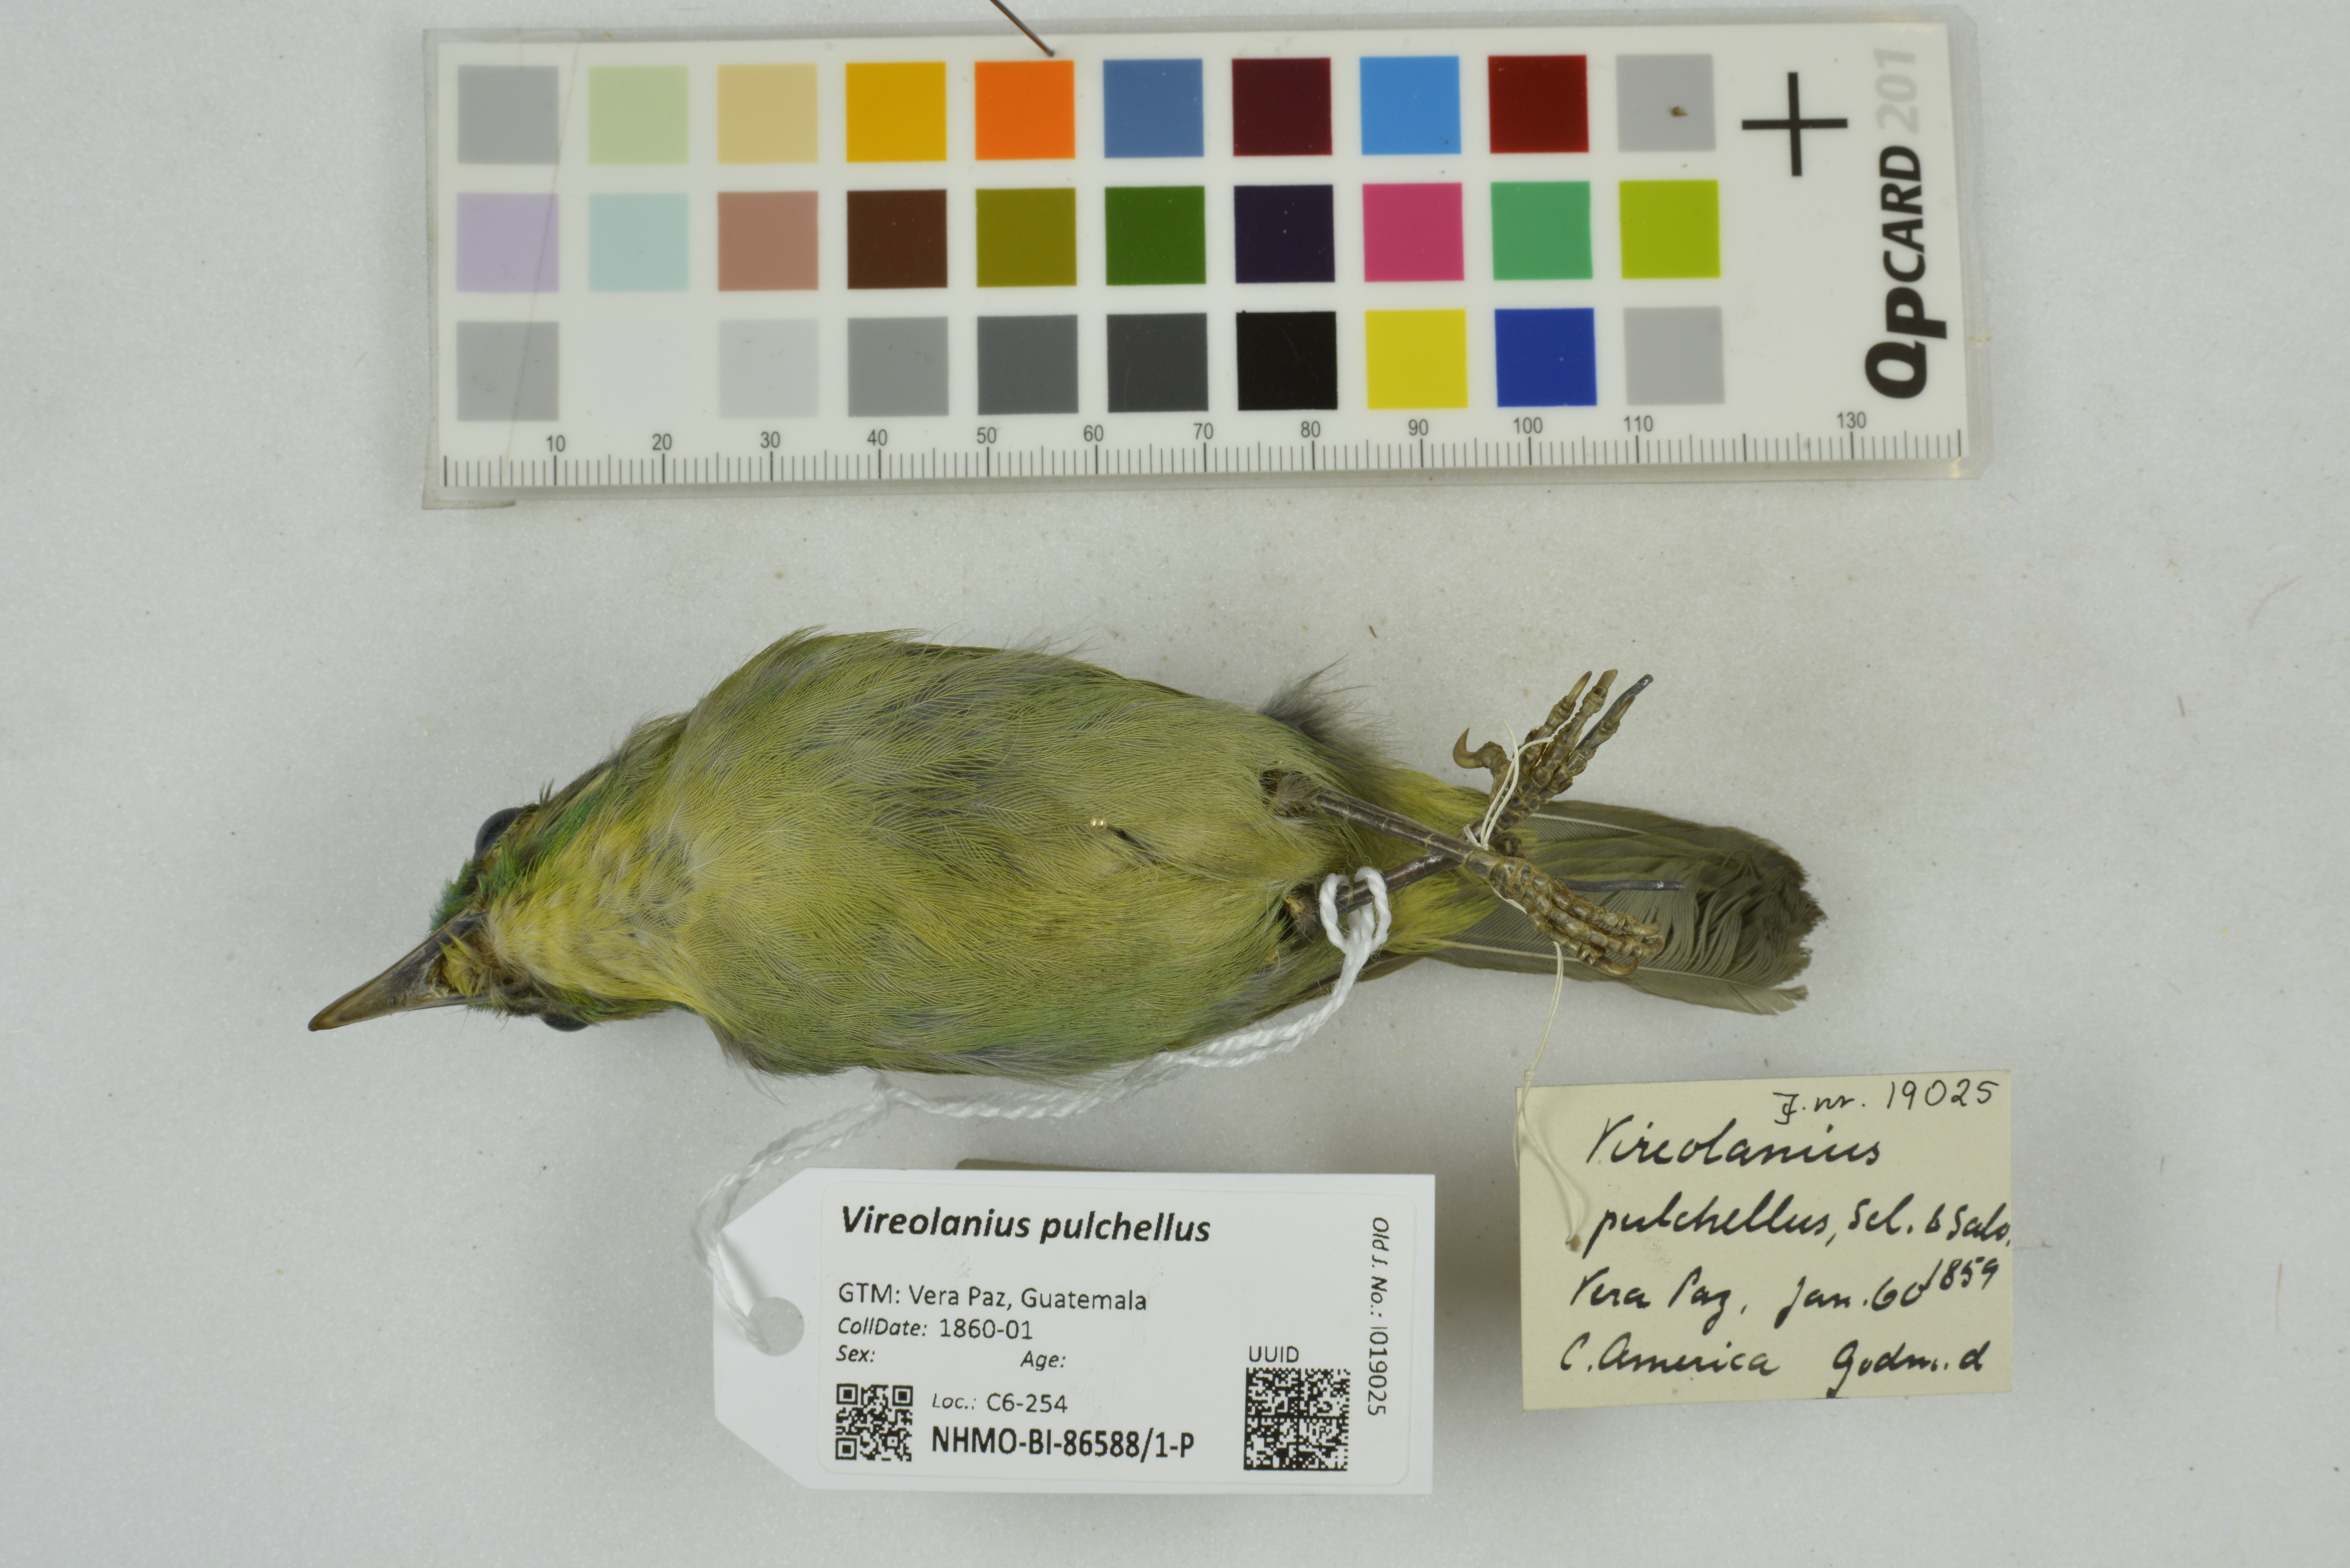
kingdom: Animalia
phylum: Chordata
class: Aves
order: Passeriformes
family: Vireonidae
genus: Vireolanius
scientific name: Vireolanius pulchellus
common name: Green shrike-vireo
